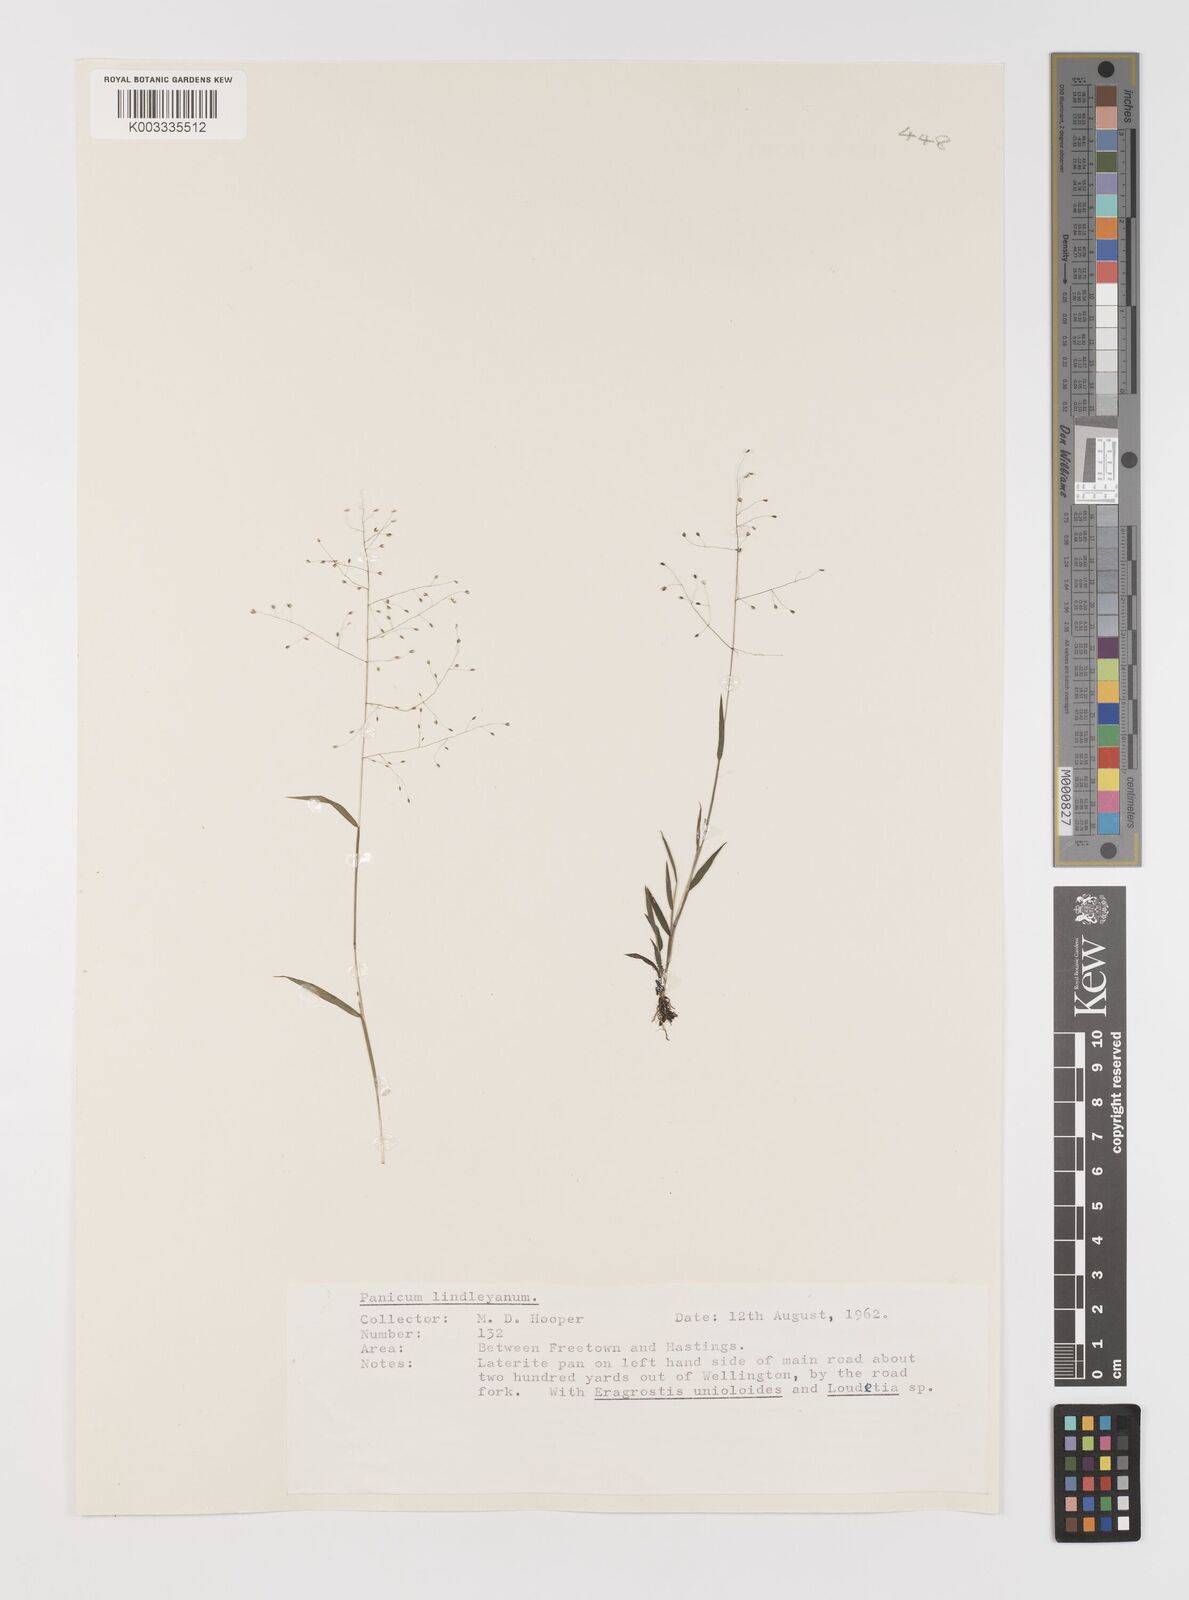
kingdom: Plantae
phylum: Tracheophyta
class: Liliopsida
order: Poales
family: Poaceae
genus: Trichanthecium
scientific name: Trichanthecium tenellum
